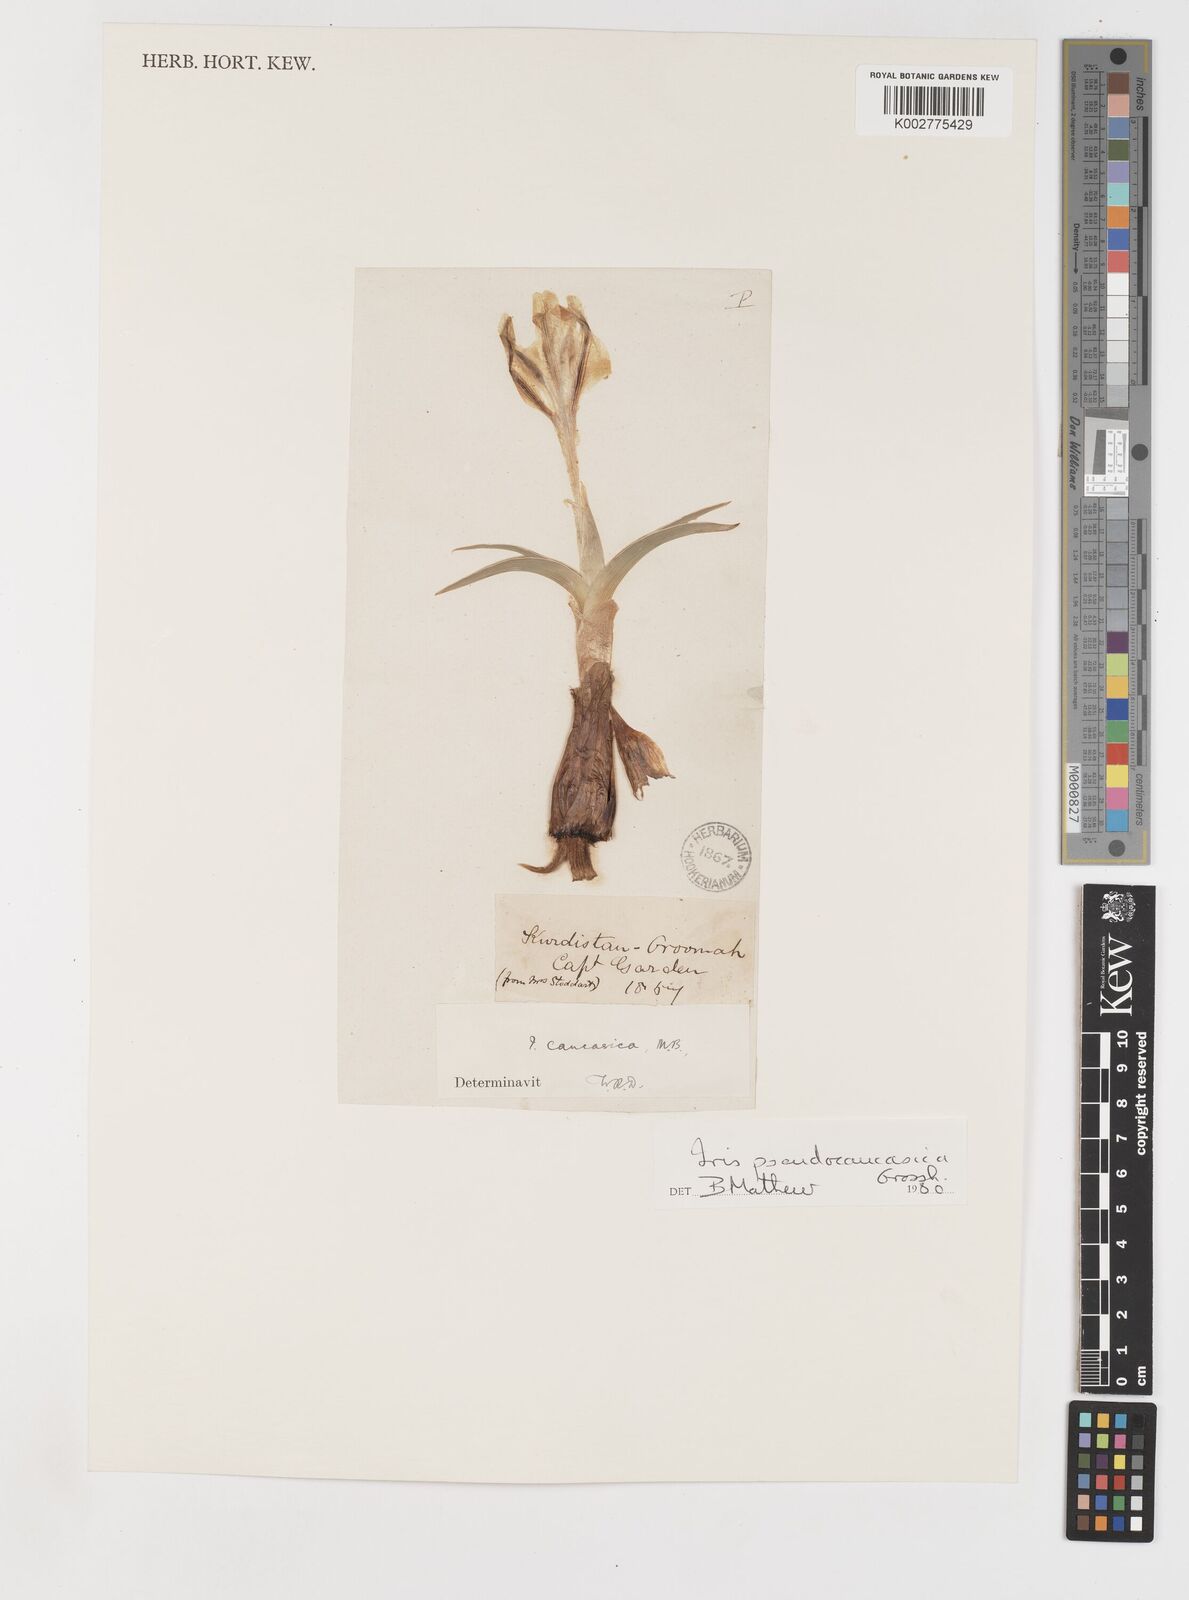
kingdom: Plantae
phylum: Tracheophyta
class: Liliopsida
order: Asparagales
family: Iridaceae
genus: Iris
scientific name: Iris pseudocaucasica
